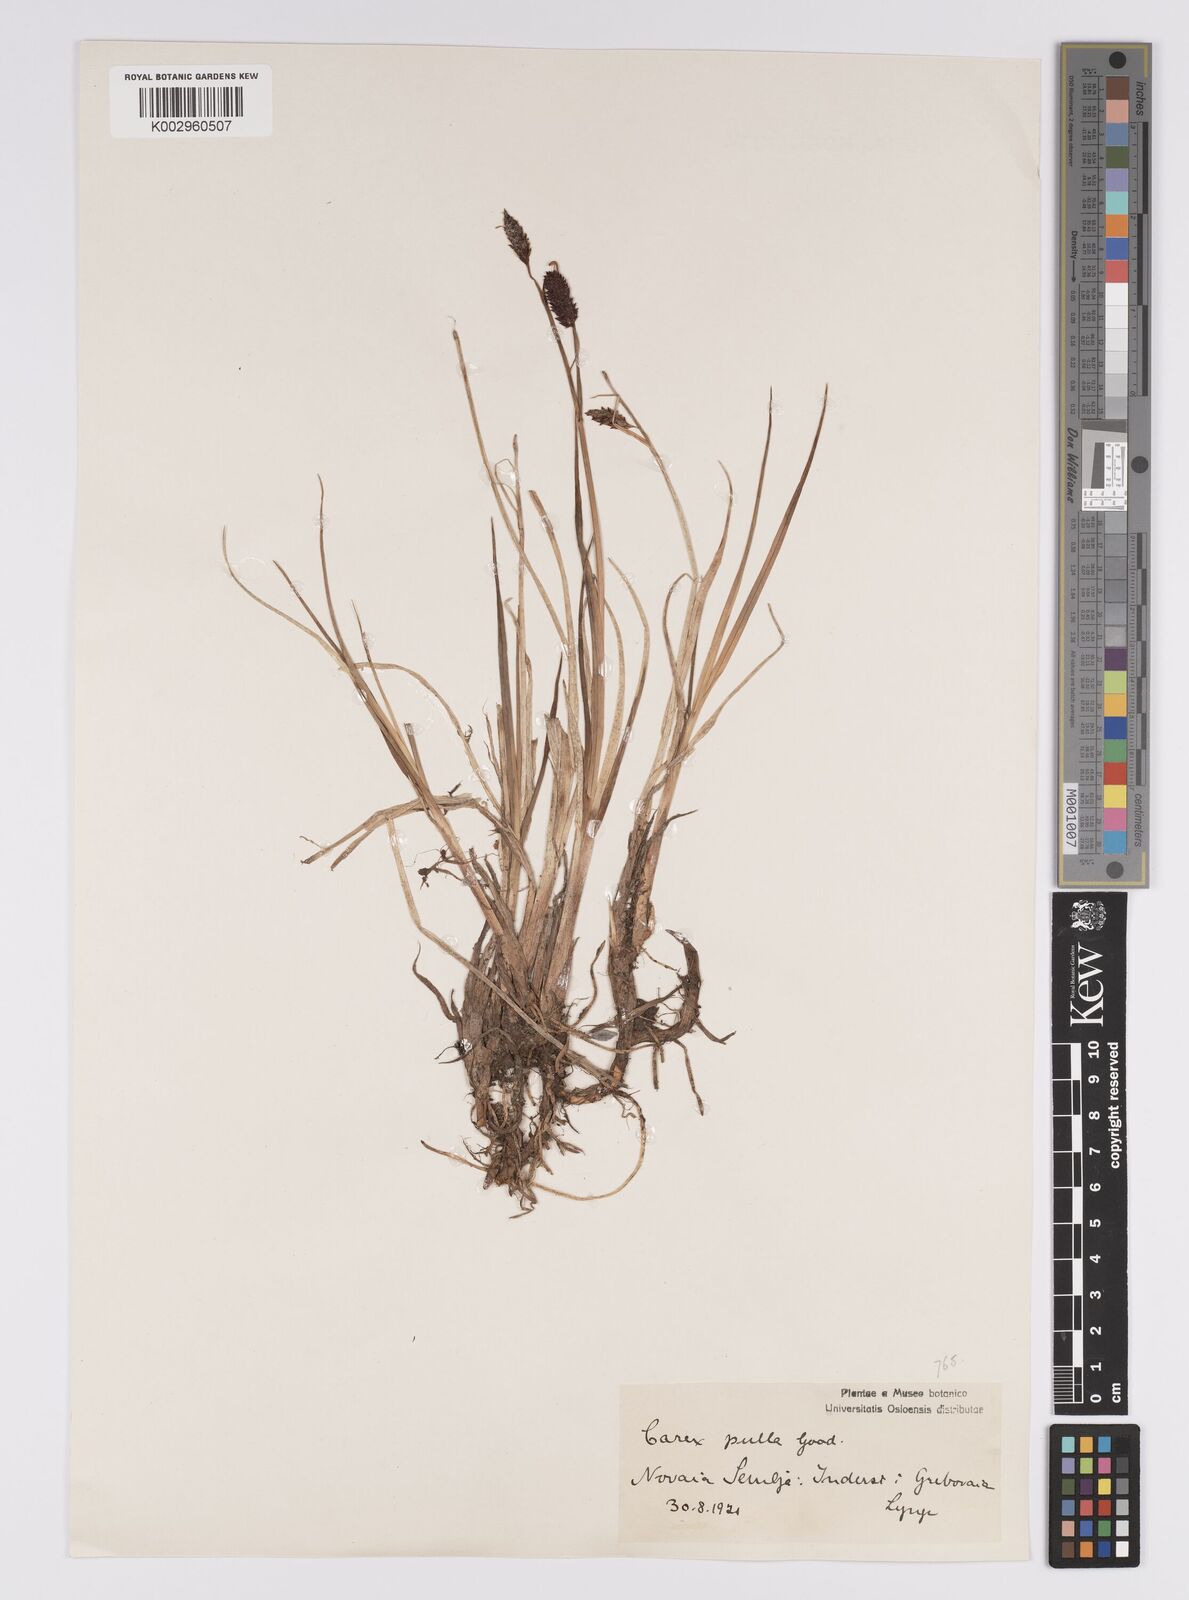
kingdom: Plantae
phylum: Tracheophyta
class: Liliopsida
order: Poales
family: Cyperaceae
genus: Carex
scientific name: Carex saxatilis
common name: Russet sedge
